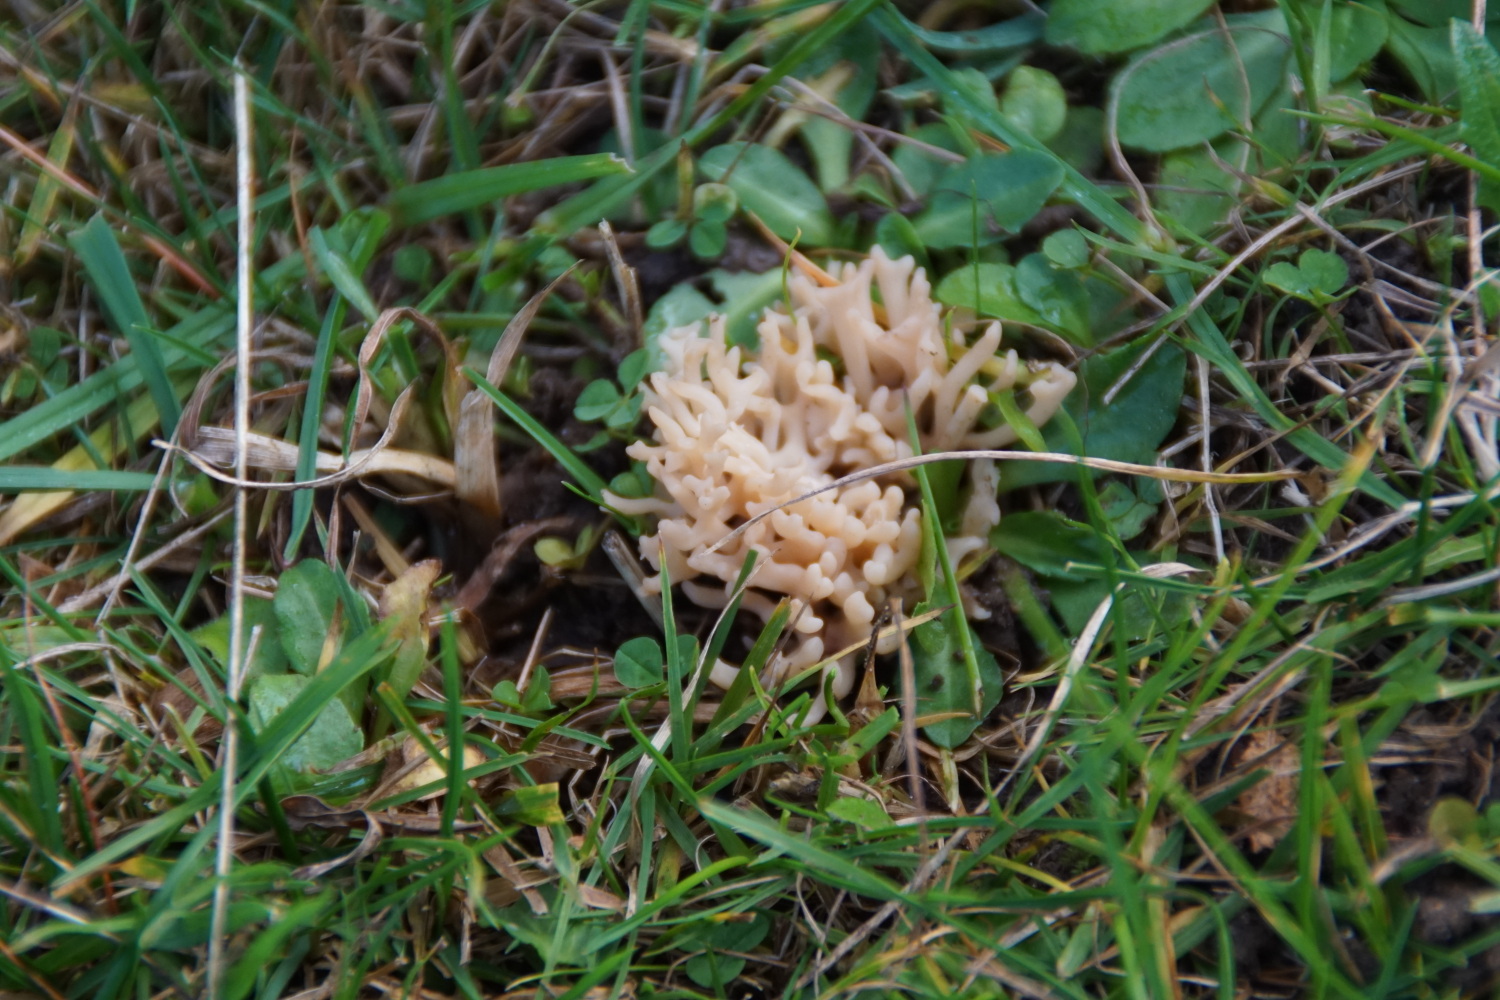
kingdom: Fungi
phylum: Basidiomycota
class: Agaricomycetes
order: Agaricales
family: Clavariaceae
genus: Clavulinopsis
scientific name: Clavulinopsis umbrinella
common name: gulgrå køllesvamp
